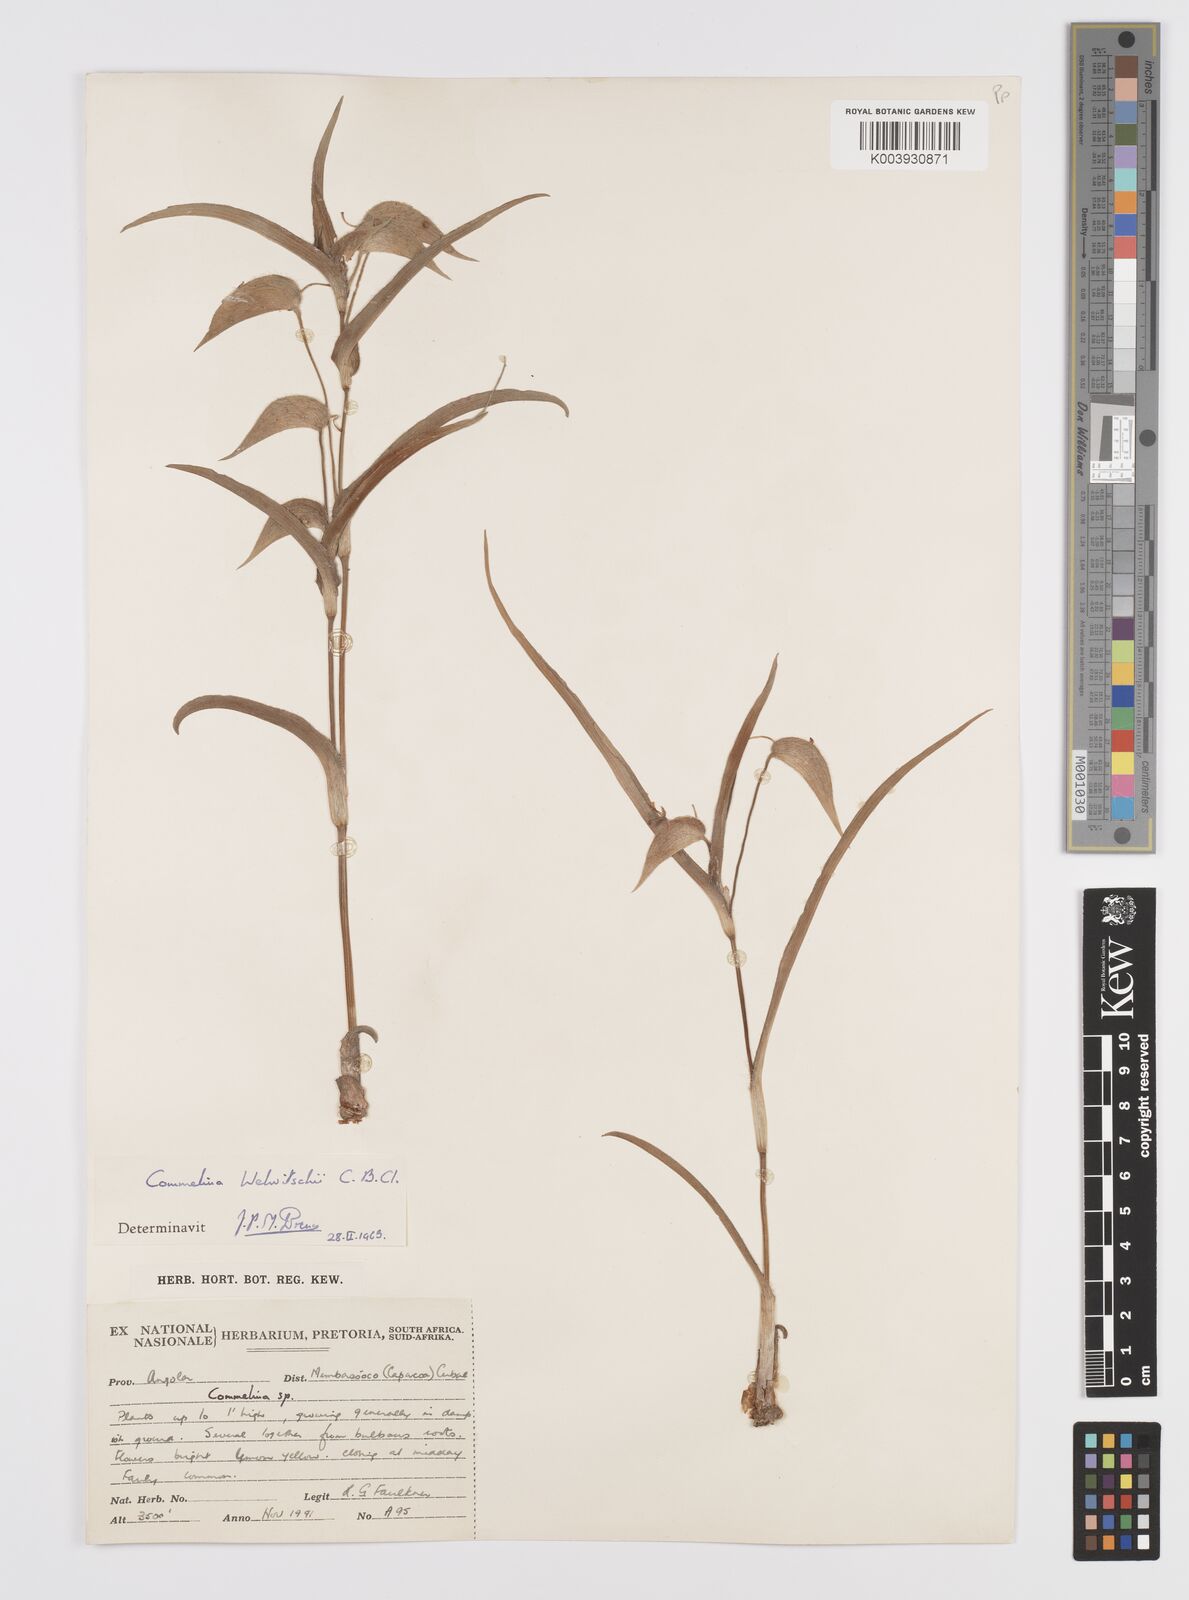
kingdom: Plantae
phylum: Tracheophyta
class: Liliopsida
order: Commelinales
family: Commelinaceae
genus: Commelina
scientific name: Commelina welwitschii
